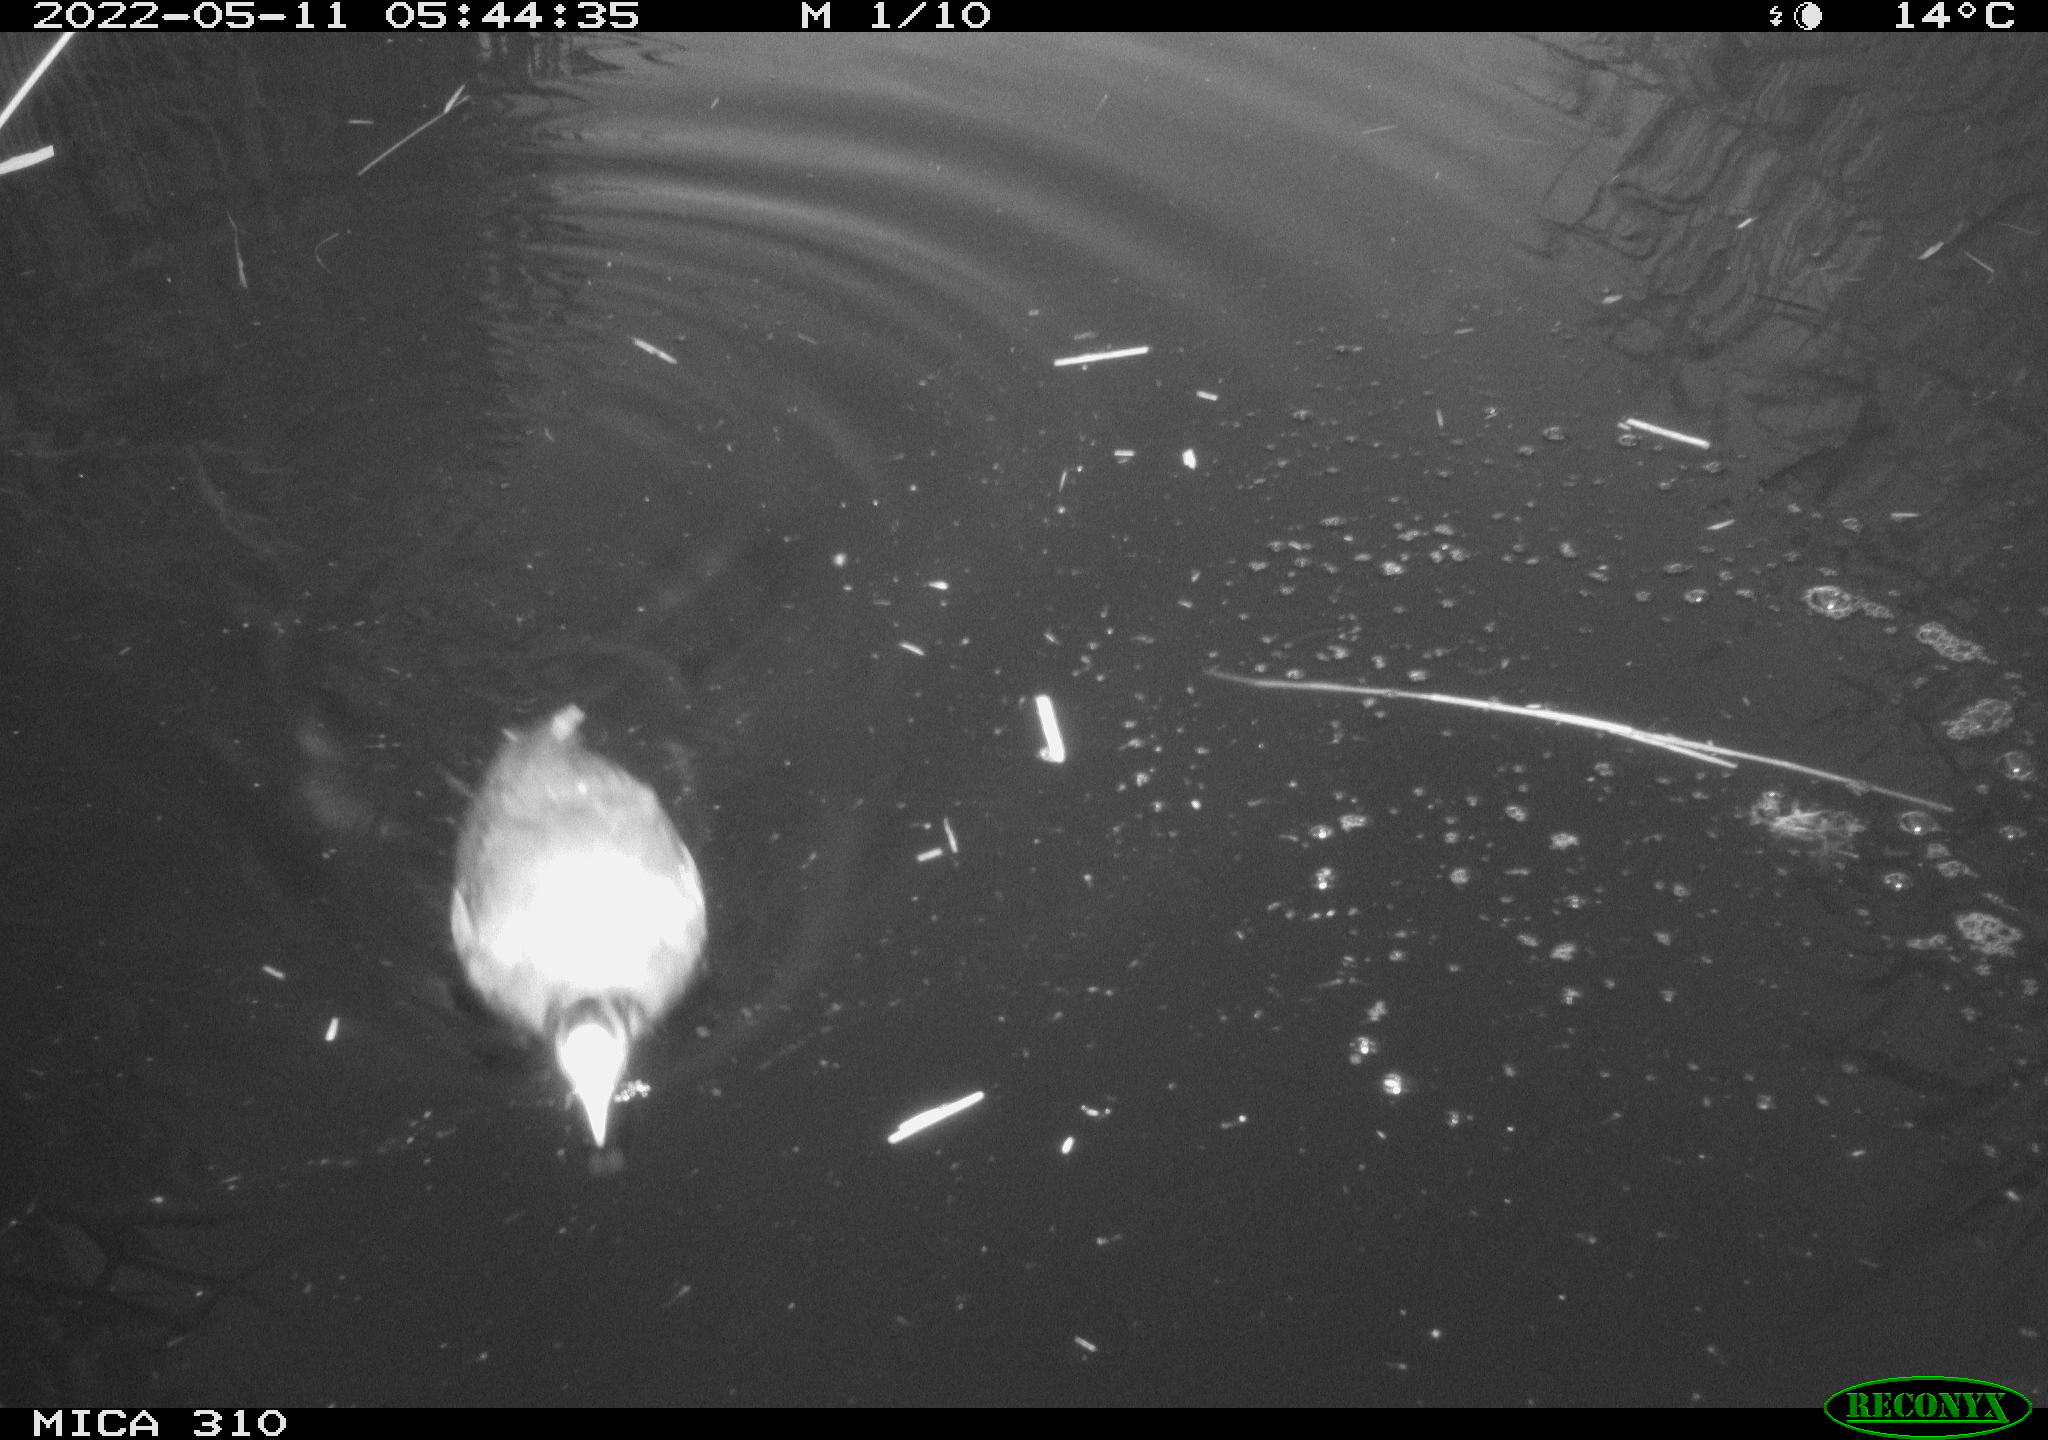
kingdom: Animalia
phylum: Chordata
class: Aves
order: Gruiformes
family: Rallidae
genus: Fulica
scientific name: Fulica atra
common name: Eurasian coot
